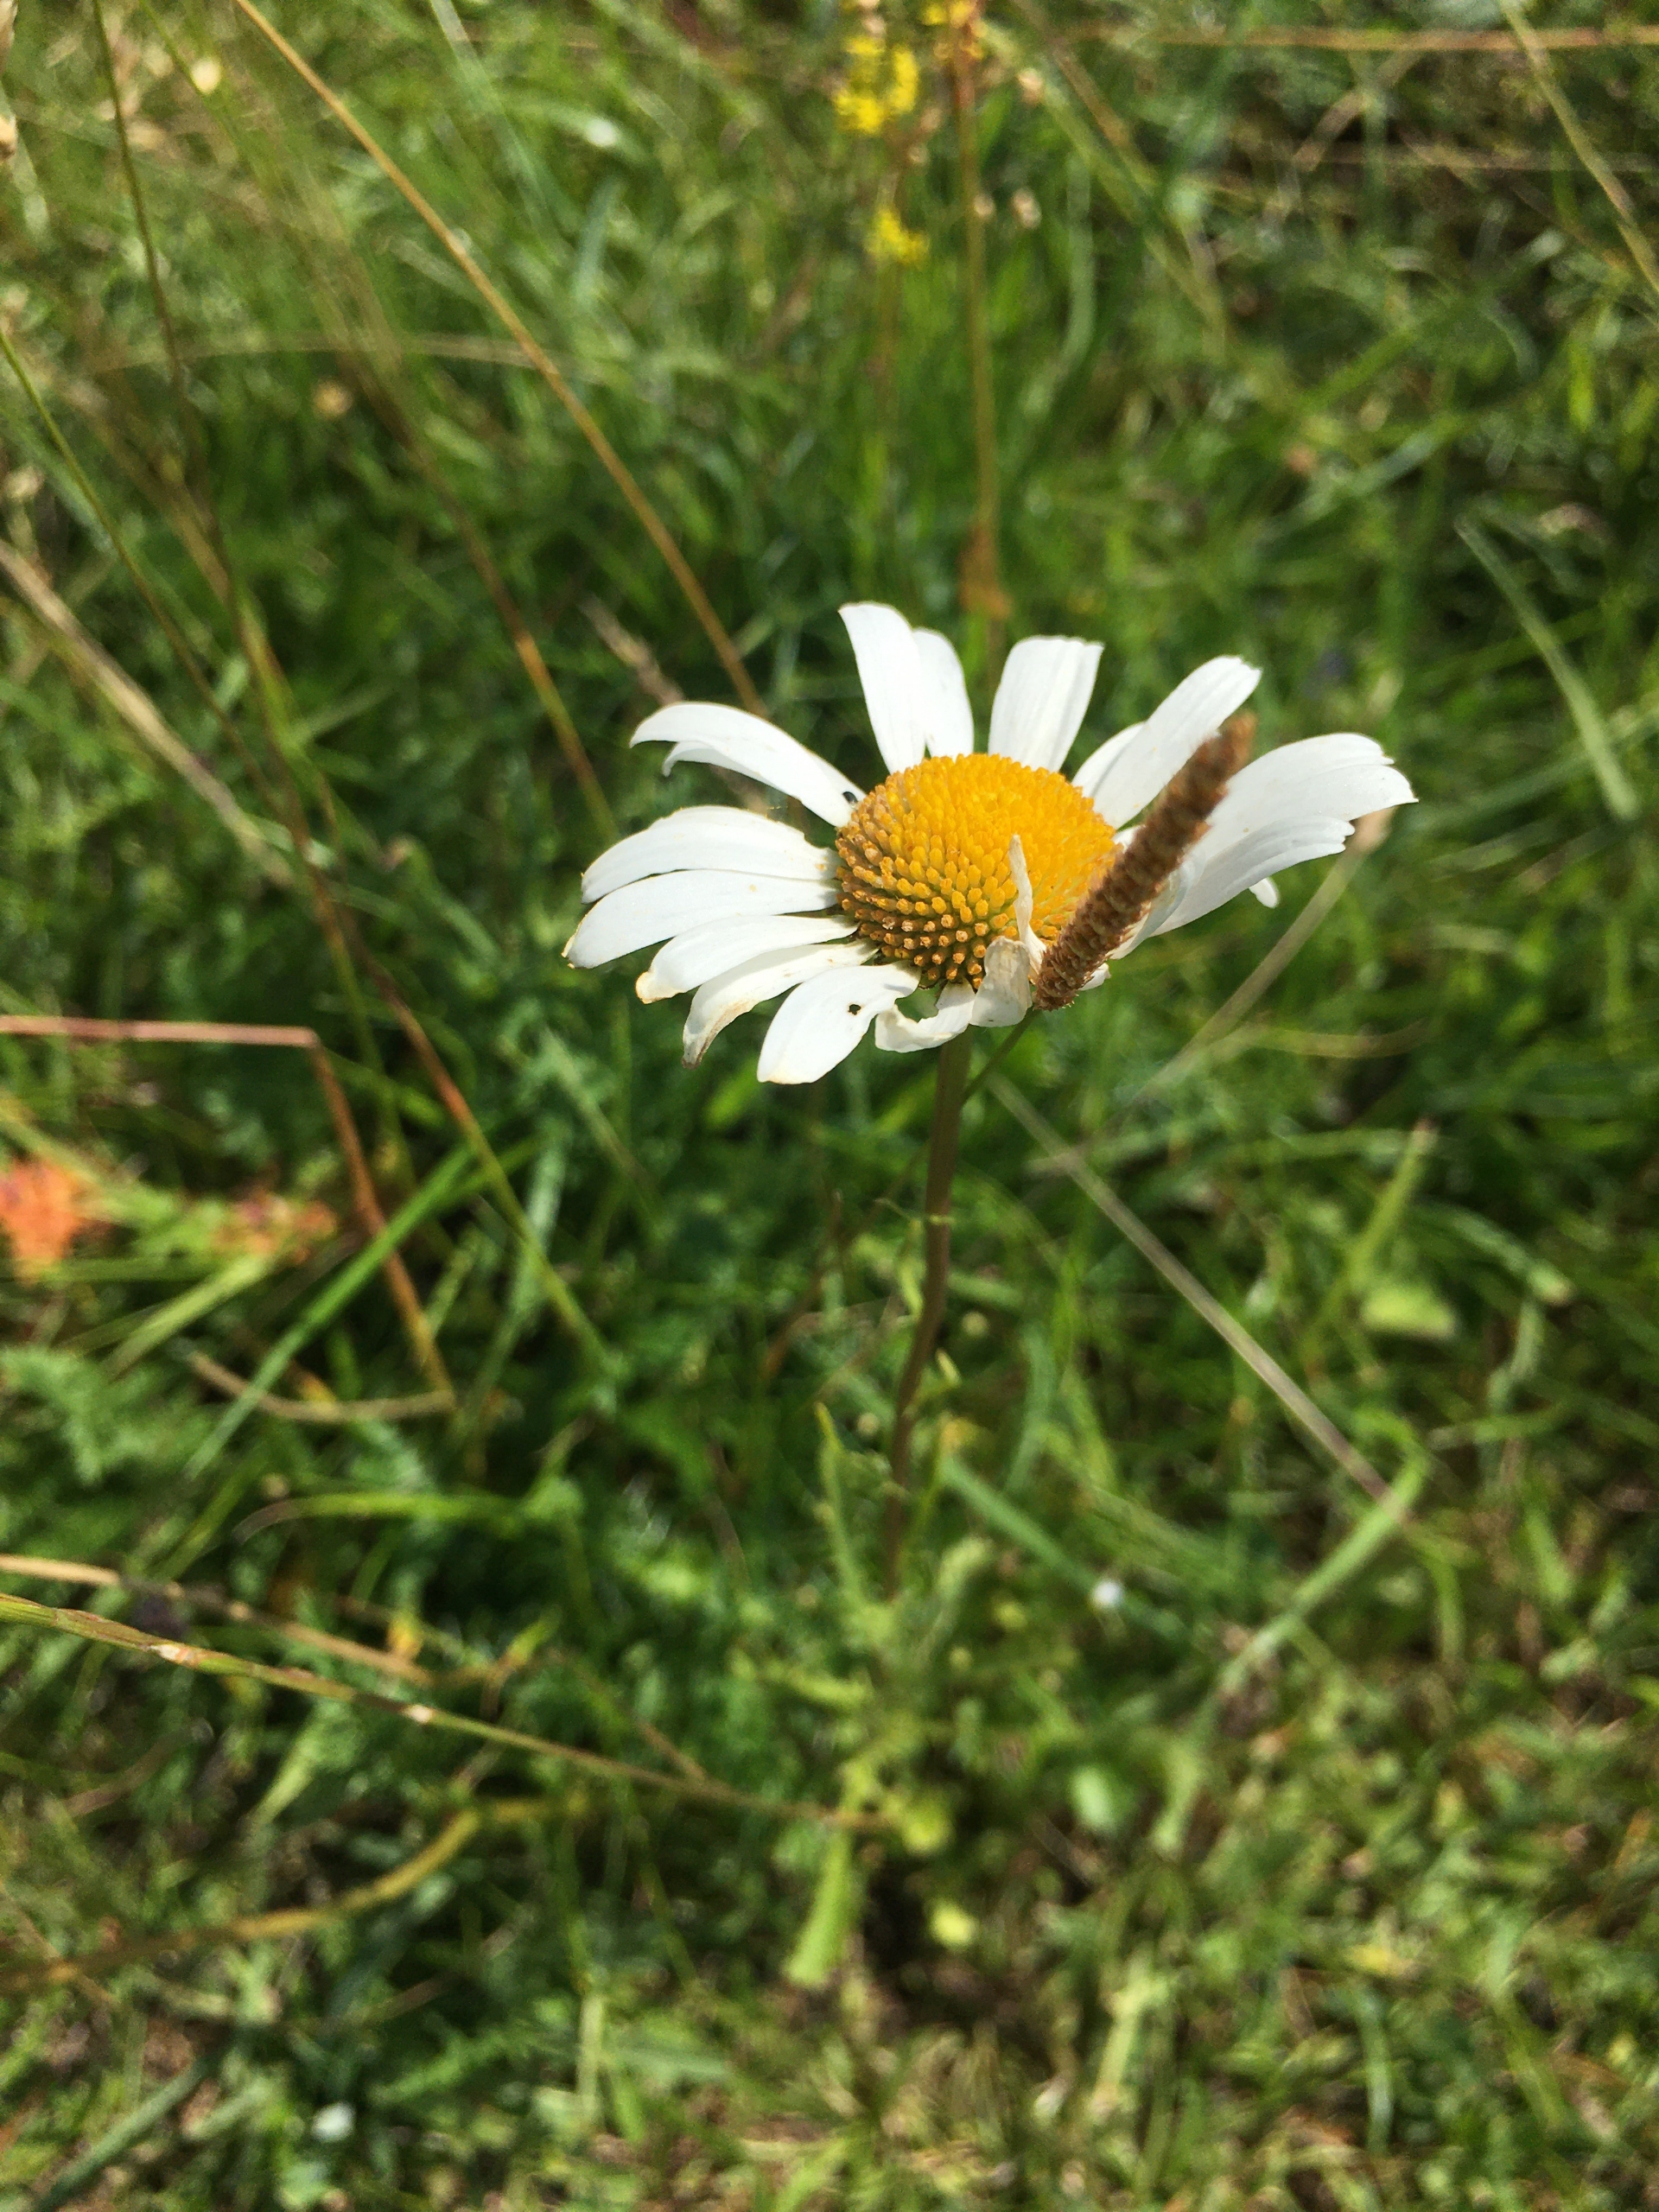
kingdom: Plantae
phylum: Tracheophyta
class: Magnoliopsida
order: Asterales
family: Asteraceae
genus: Leucanthemum
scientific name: Leucanthemum vulgare
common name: Hvid okseøje
